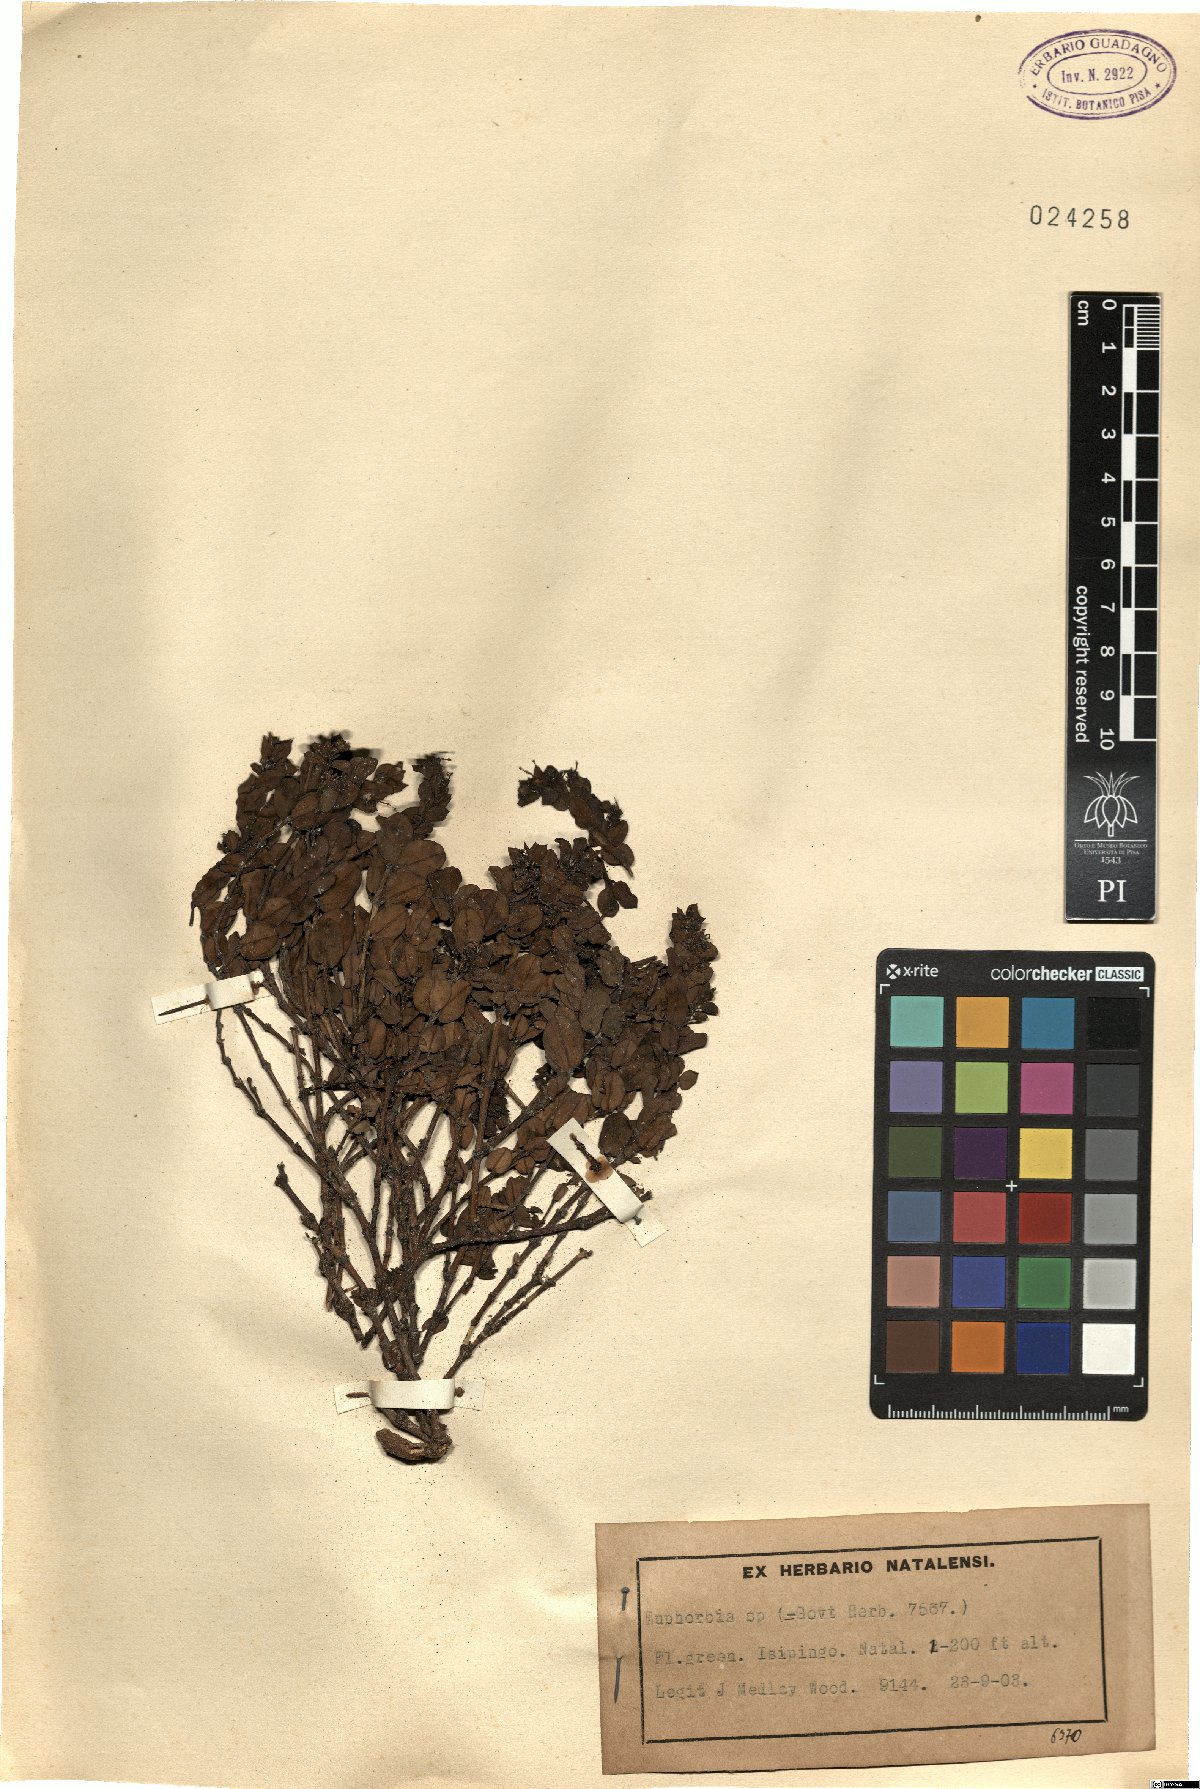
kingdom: Plantae
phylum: Tracheophyta
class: Magnoliopsida
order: Malpighiales
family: Euphorbiaceae
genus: Euphorbia
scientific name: Euphorbia
